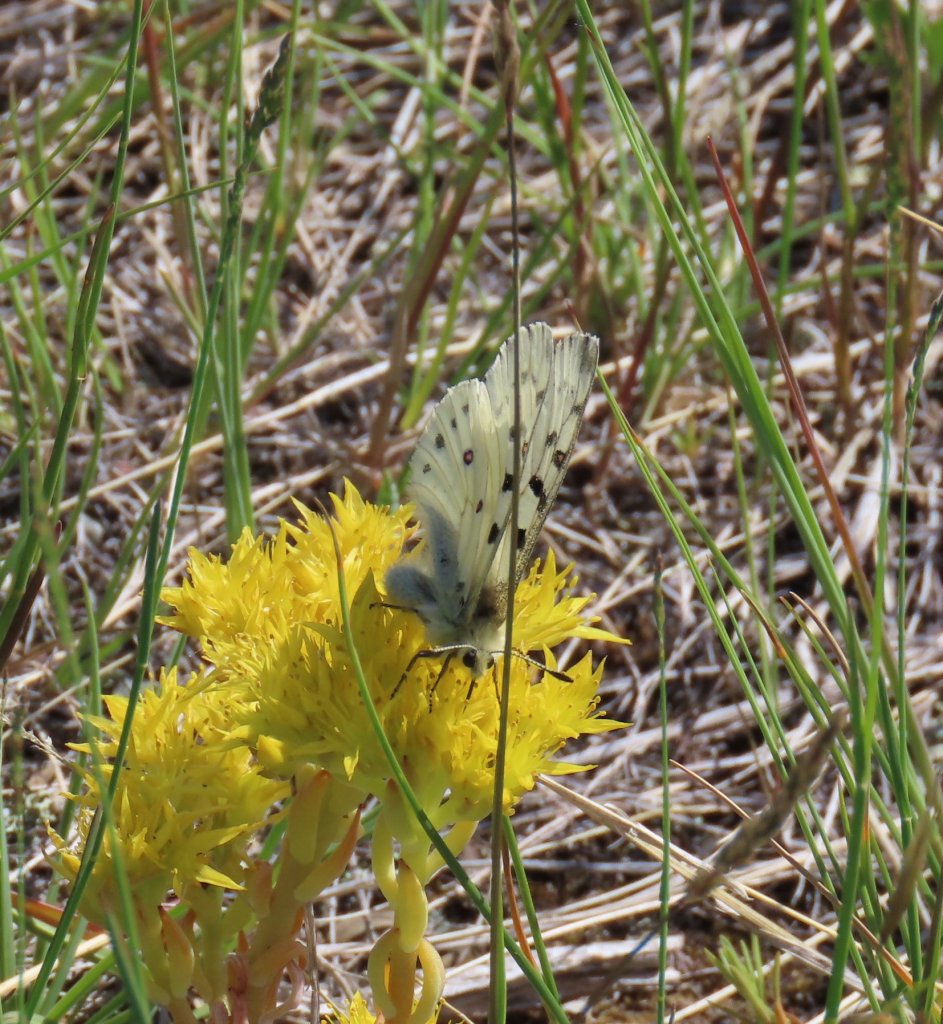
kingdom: Animalia
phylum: Arthropoda
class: Insecta
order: Lepidoptera
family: Papilionidae
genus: Parnassius
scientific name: Parnassius smintheus
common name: Rocky Mountain Parnassian
